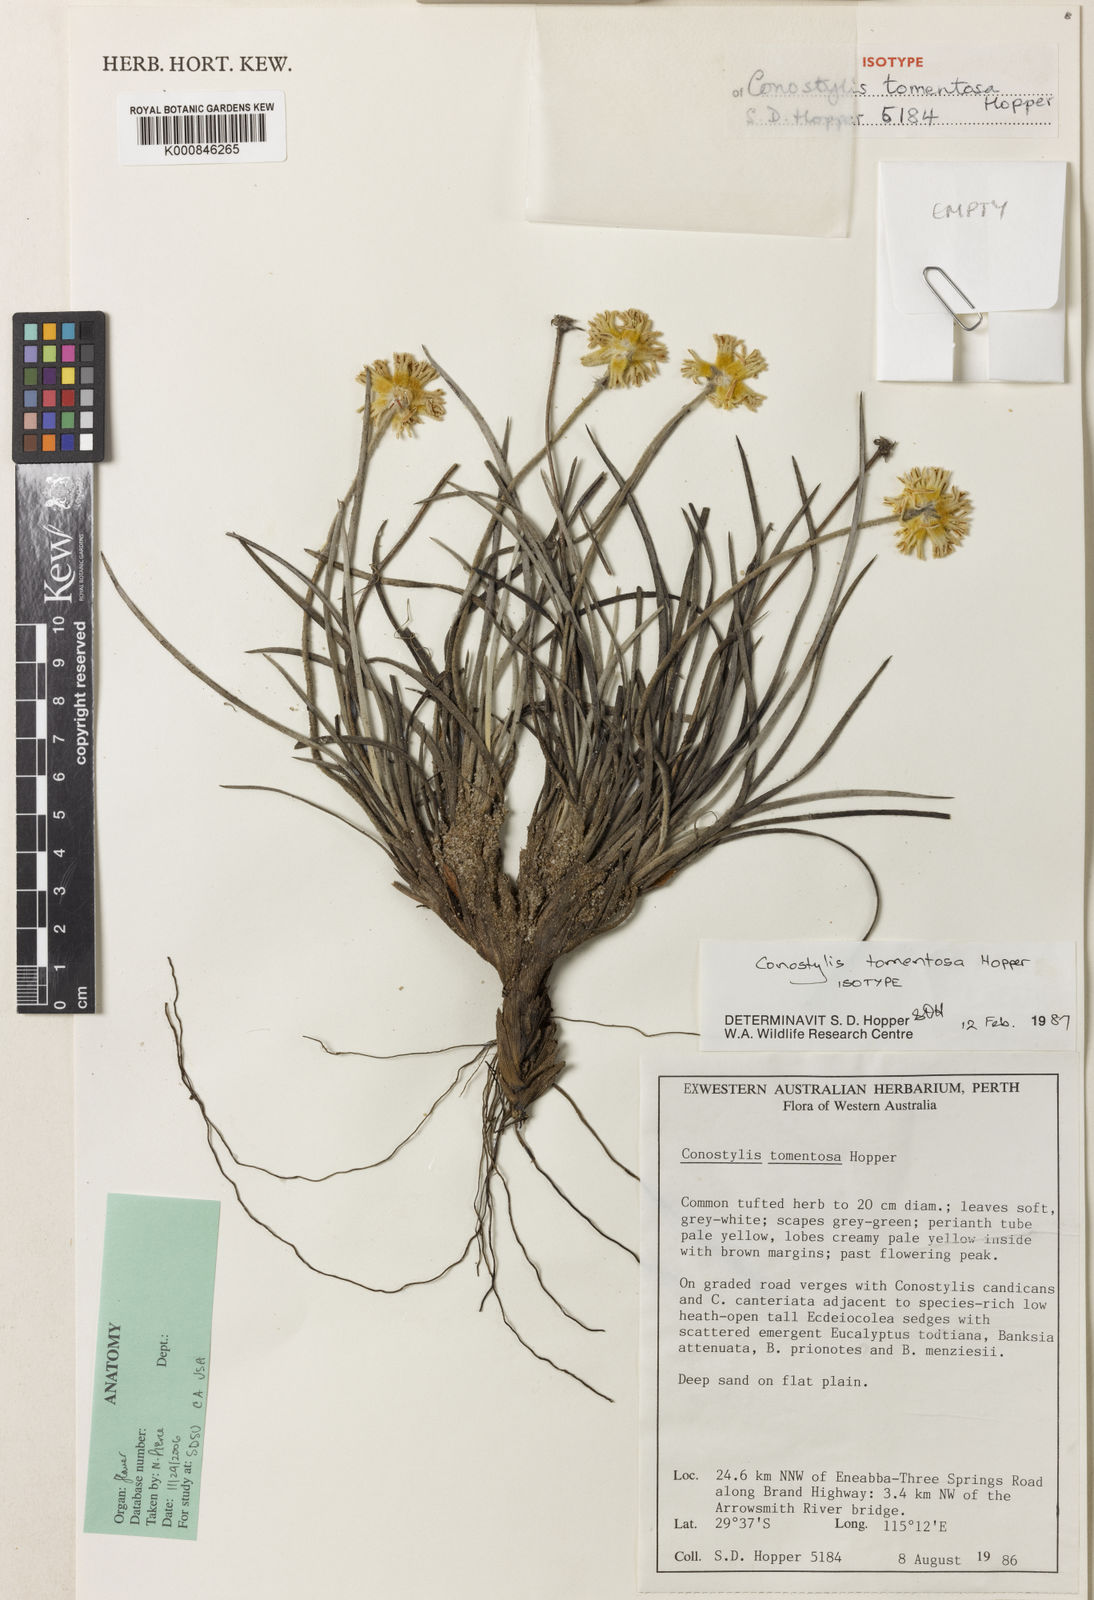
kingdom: Plantae
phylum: Tracheophyta
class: Liliopsida
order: Commelinales
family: Haemodoraceae
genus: Conostylis
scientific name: Conostylis tomentosa
